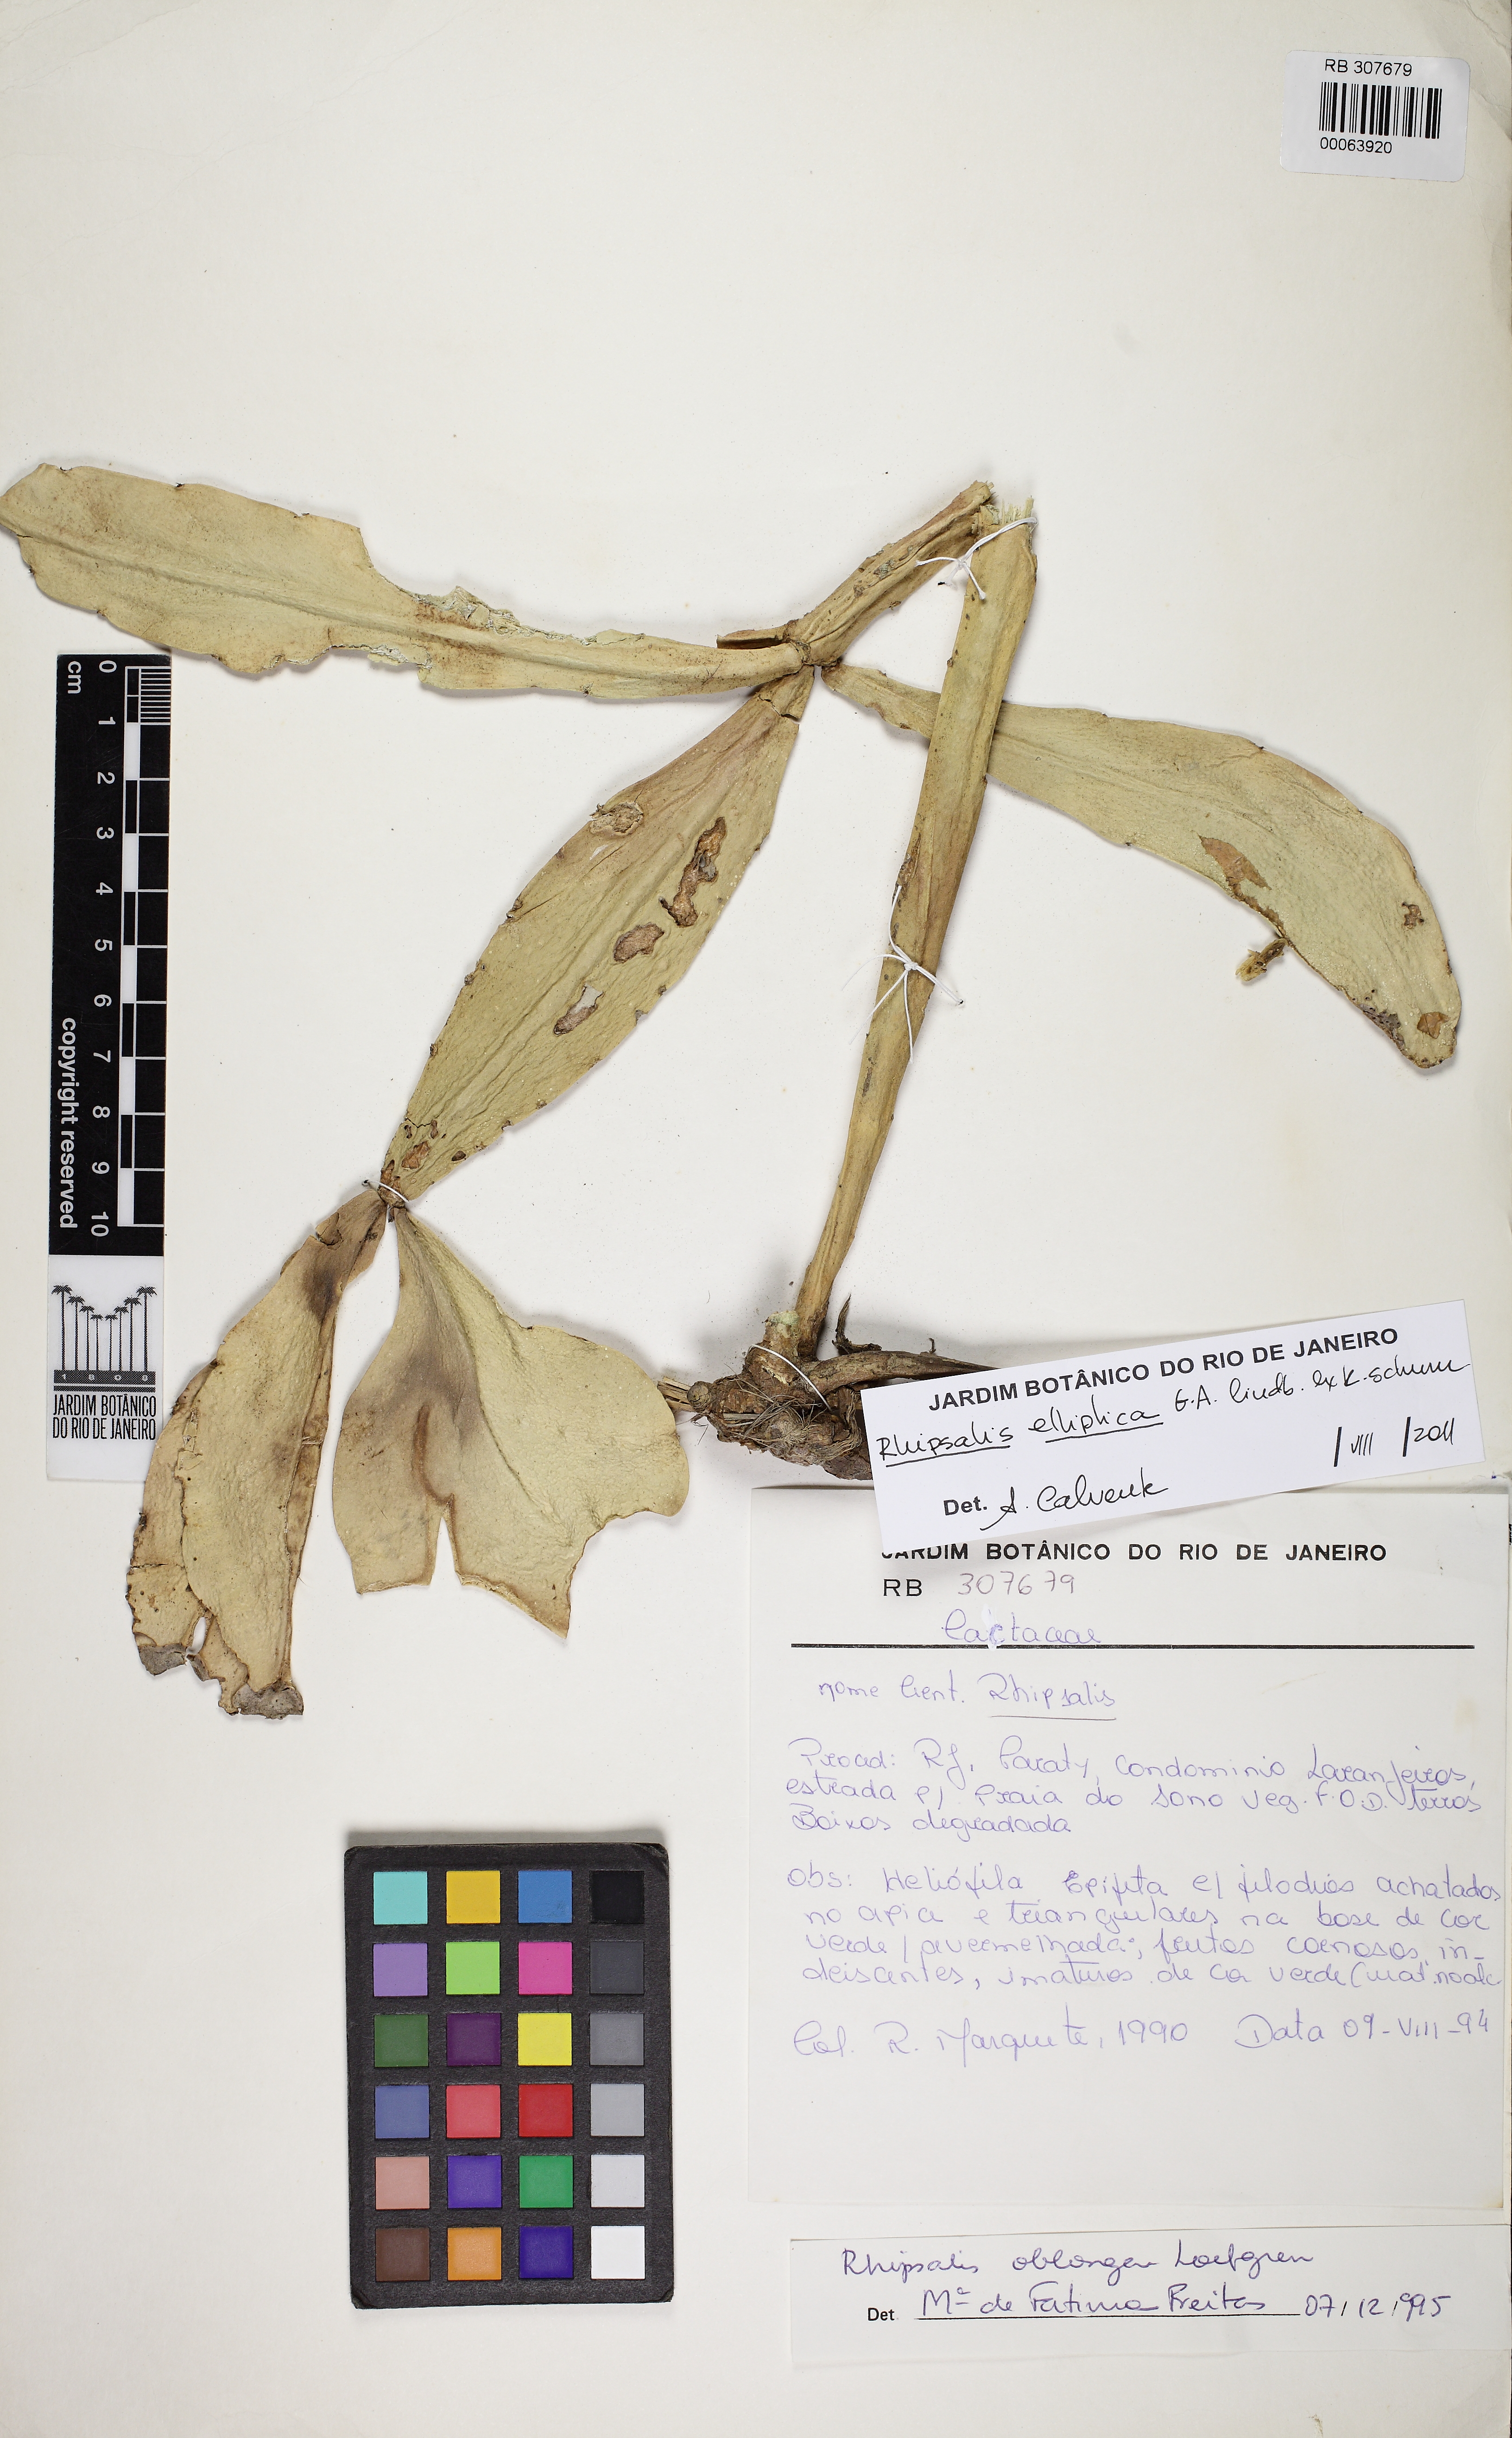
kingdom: Plantae
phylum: Tracheophyta
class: Magnoliopsida
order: Caryophyllales
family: Cactaceae
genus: Rhipsalis
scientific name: Rhipsalis elliptica
